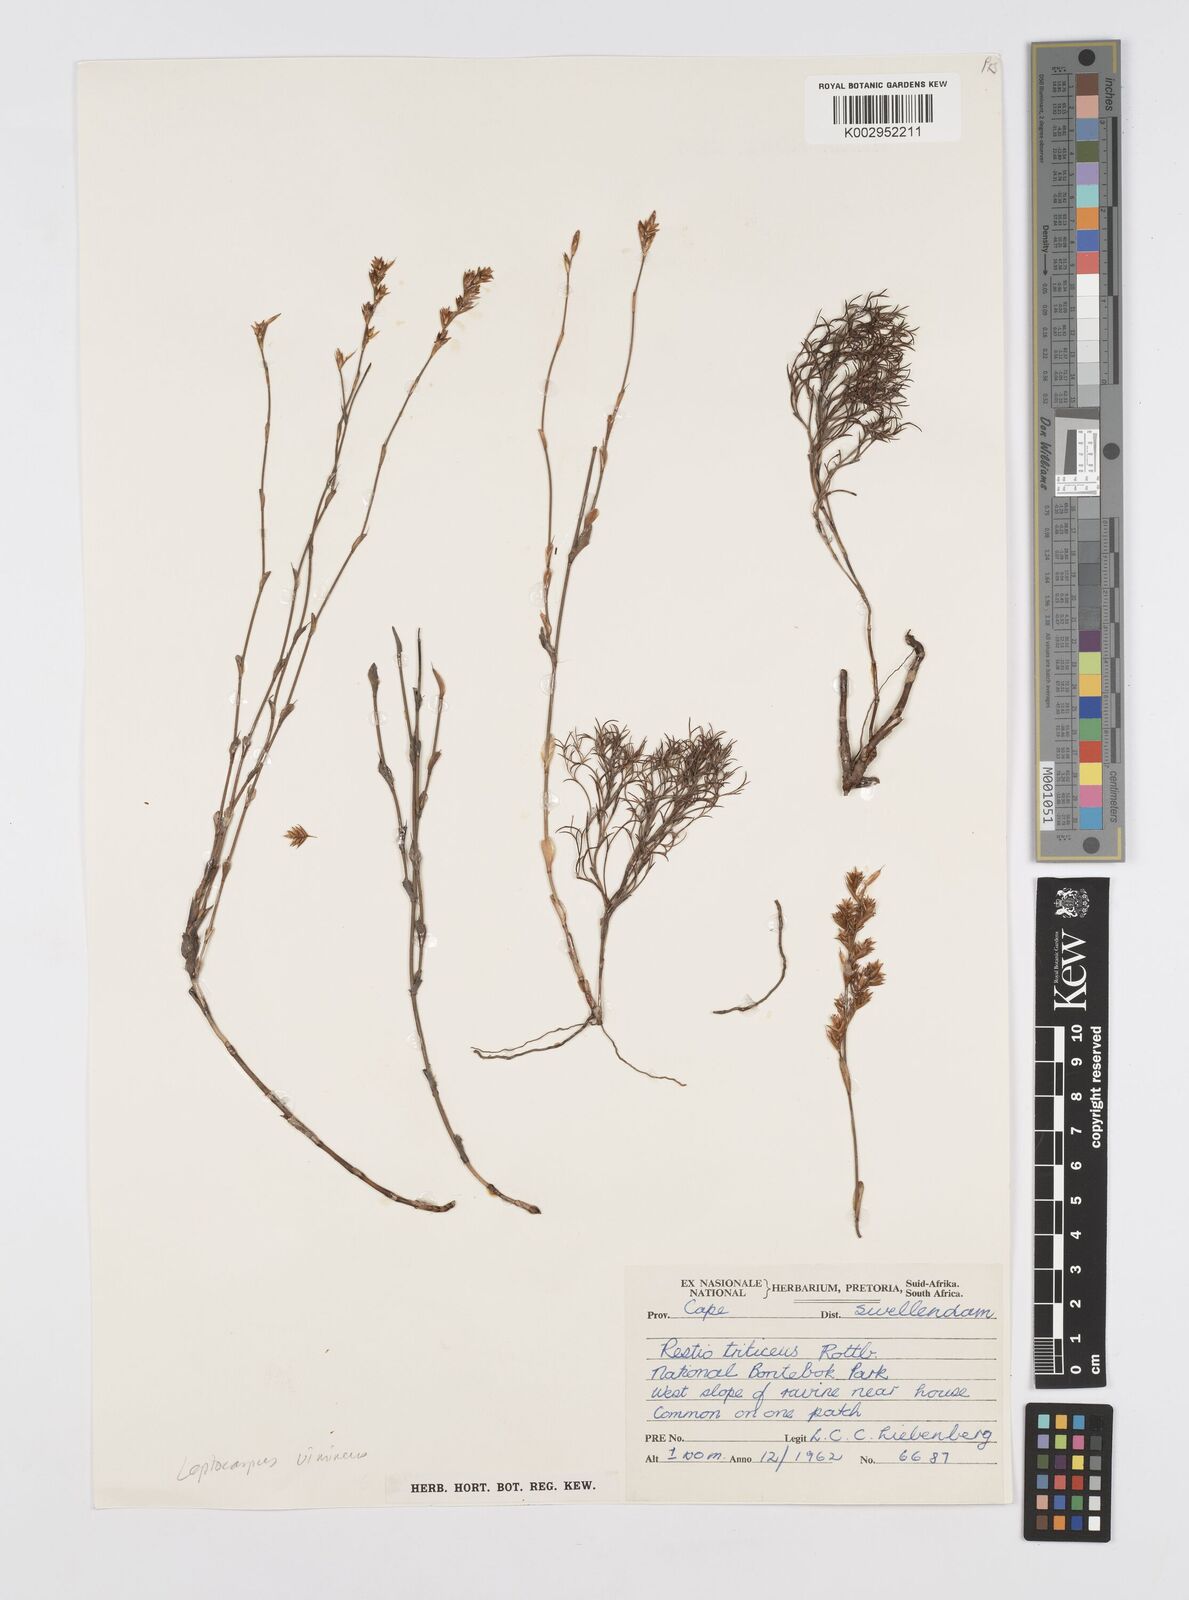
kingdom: Plantae
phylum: Tracheophyta
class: Liliopsida
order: Poales
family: Restionaceae
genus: Restio
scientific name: Restio vimineus
